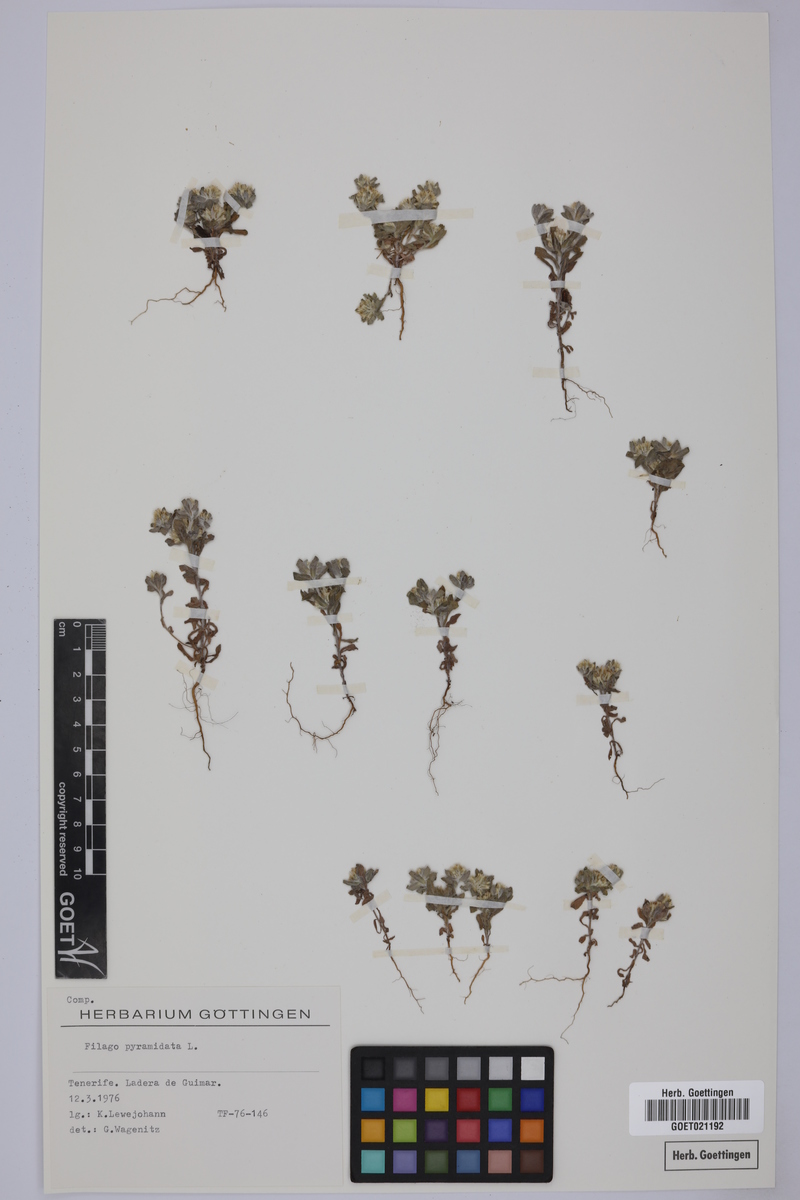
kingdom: Plantae
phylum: Tracheophyta
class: Magnoliopsida
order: Asterales
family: Asteraceae
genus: Filago
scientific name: Filago pyramidata
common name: Broad-leaved cudweed
